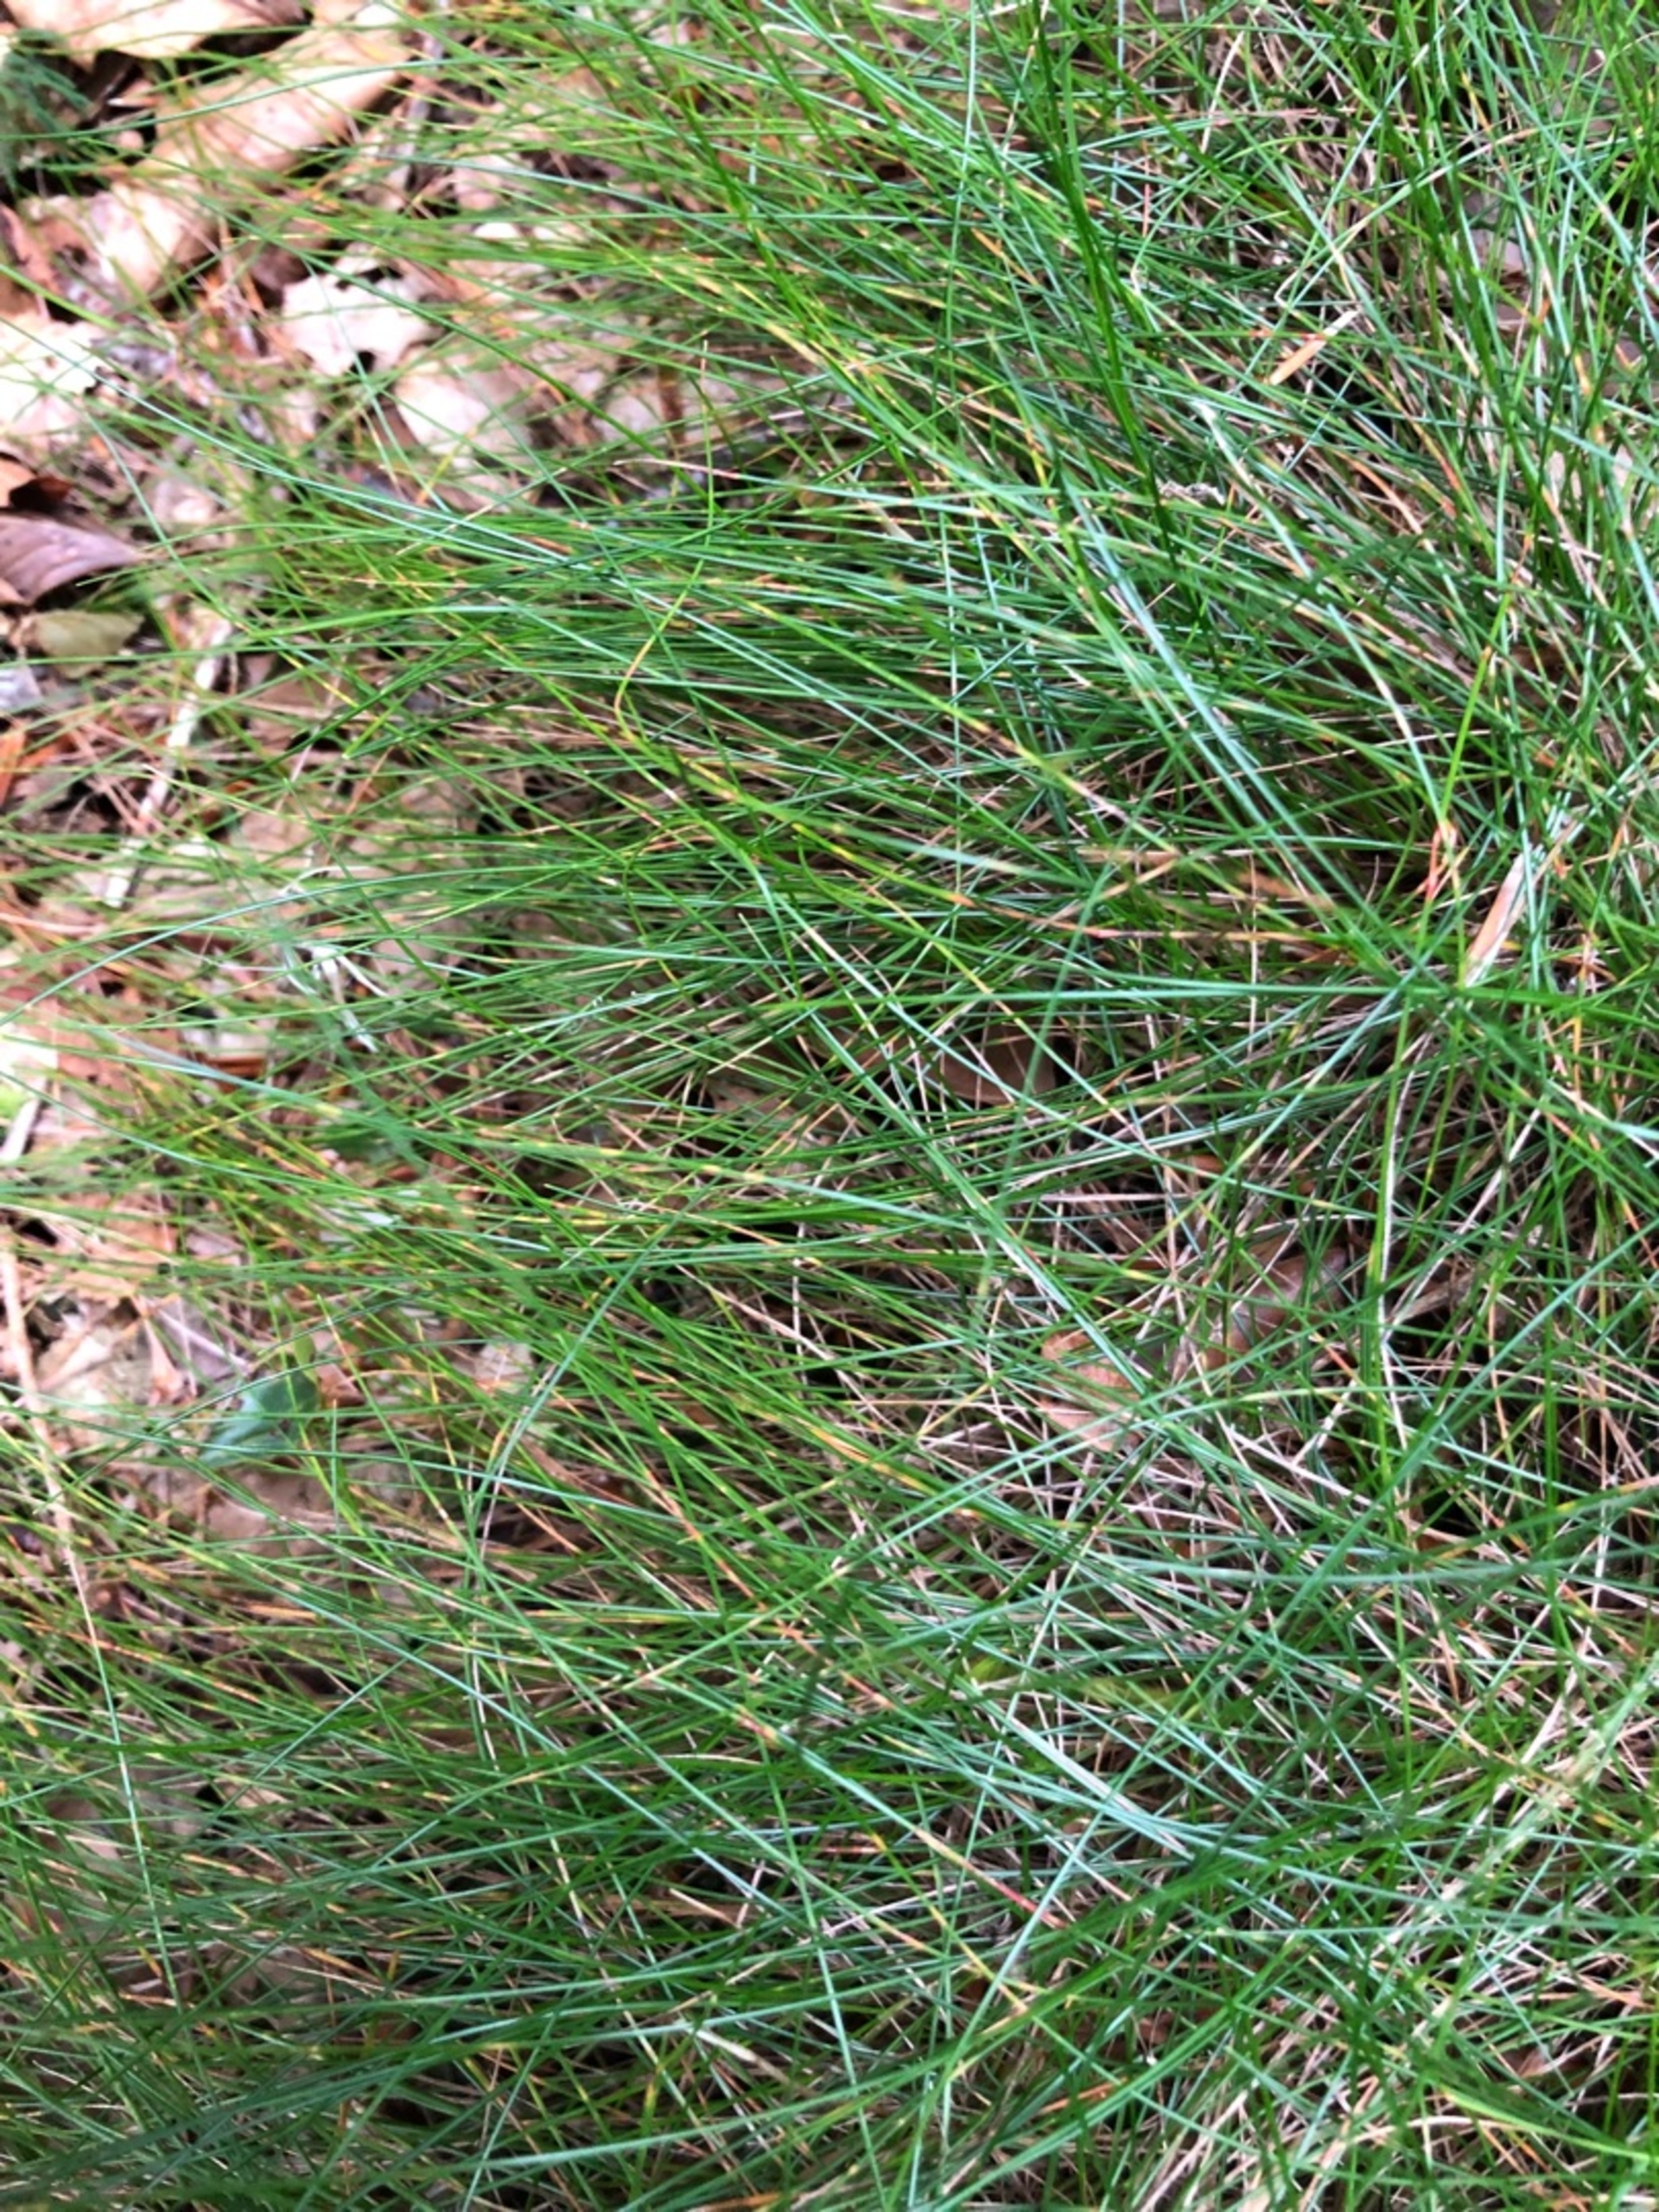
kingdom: Plantae
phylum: Tracheophyta
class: Liliopsida
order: Poales
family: Poaceae
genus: Avenella
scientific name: Avenella flexuosa
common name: Bølget bunke
